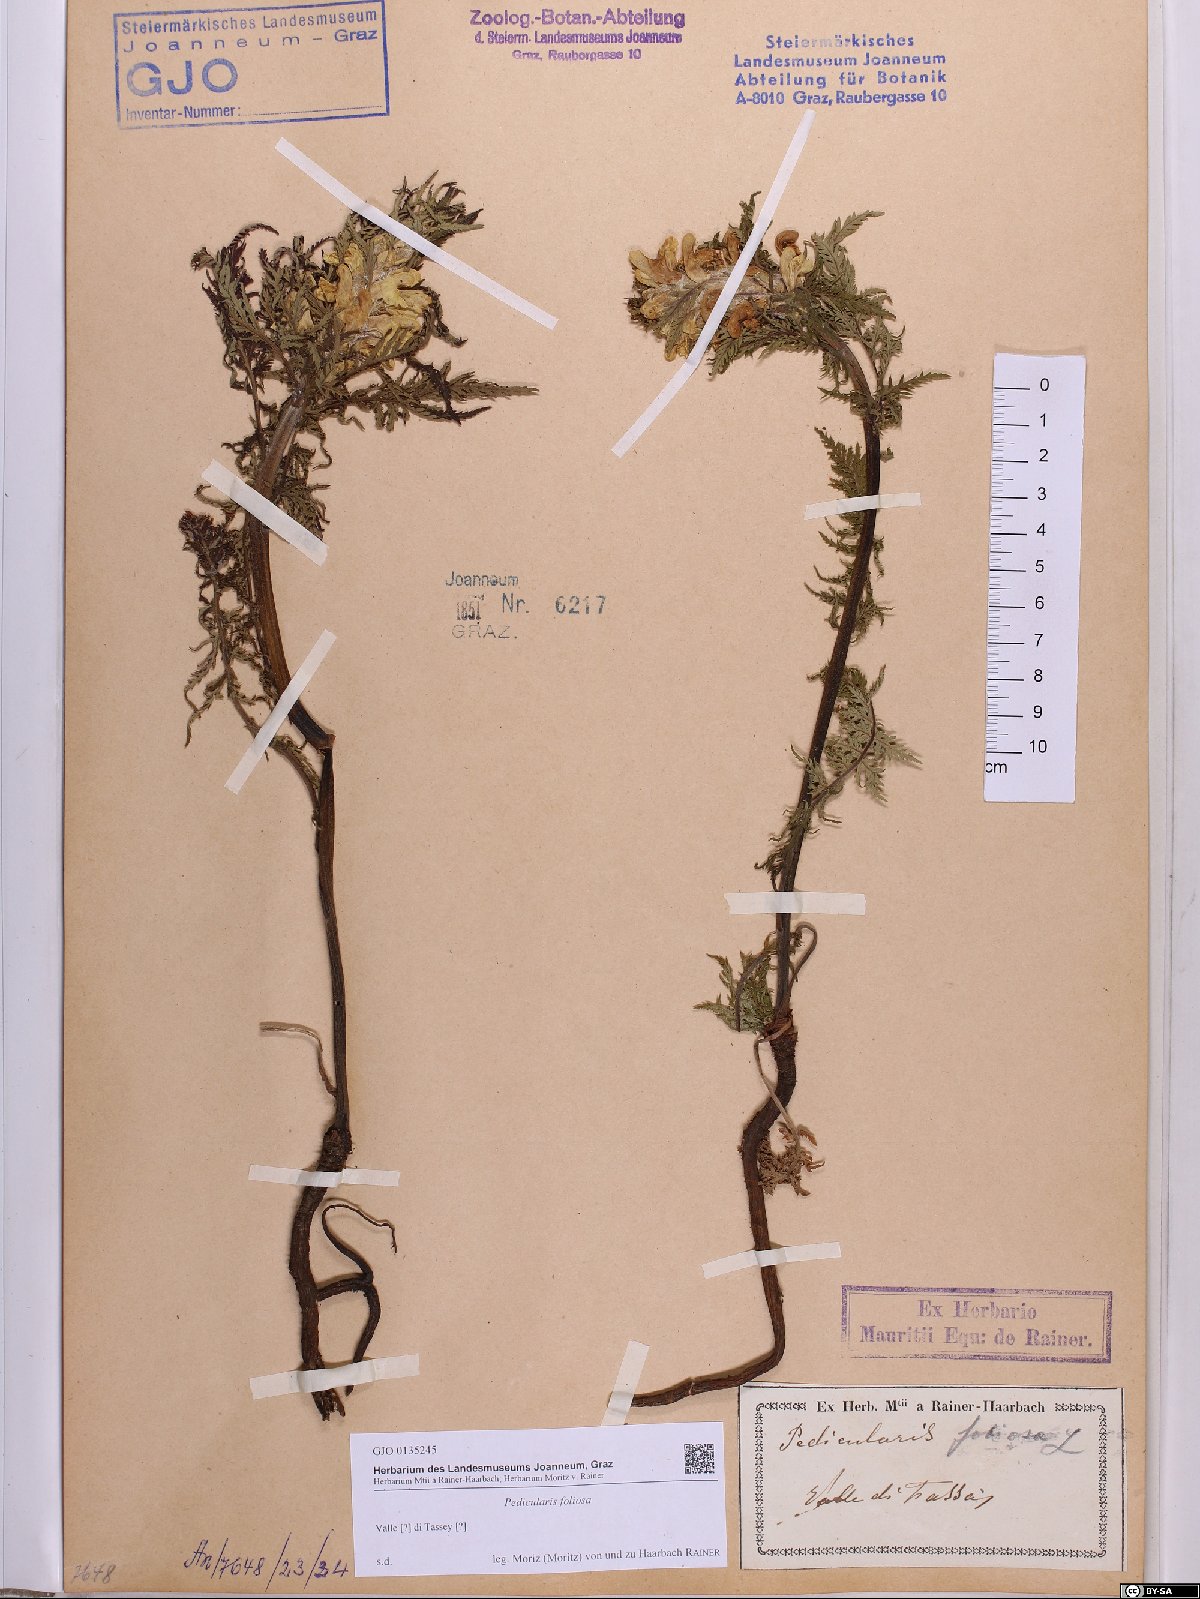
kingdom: Plantae
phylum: Tracheophyta
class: Magnoliopsida
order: Lamiales
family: Orobanchaceae
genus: Pedicularis
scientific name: Pedicularis foliosa
